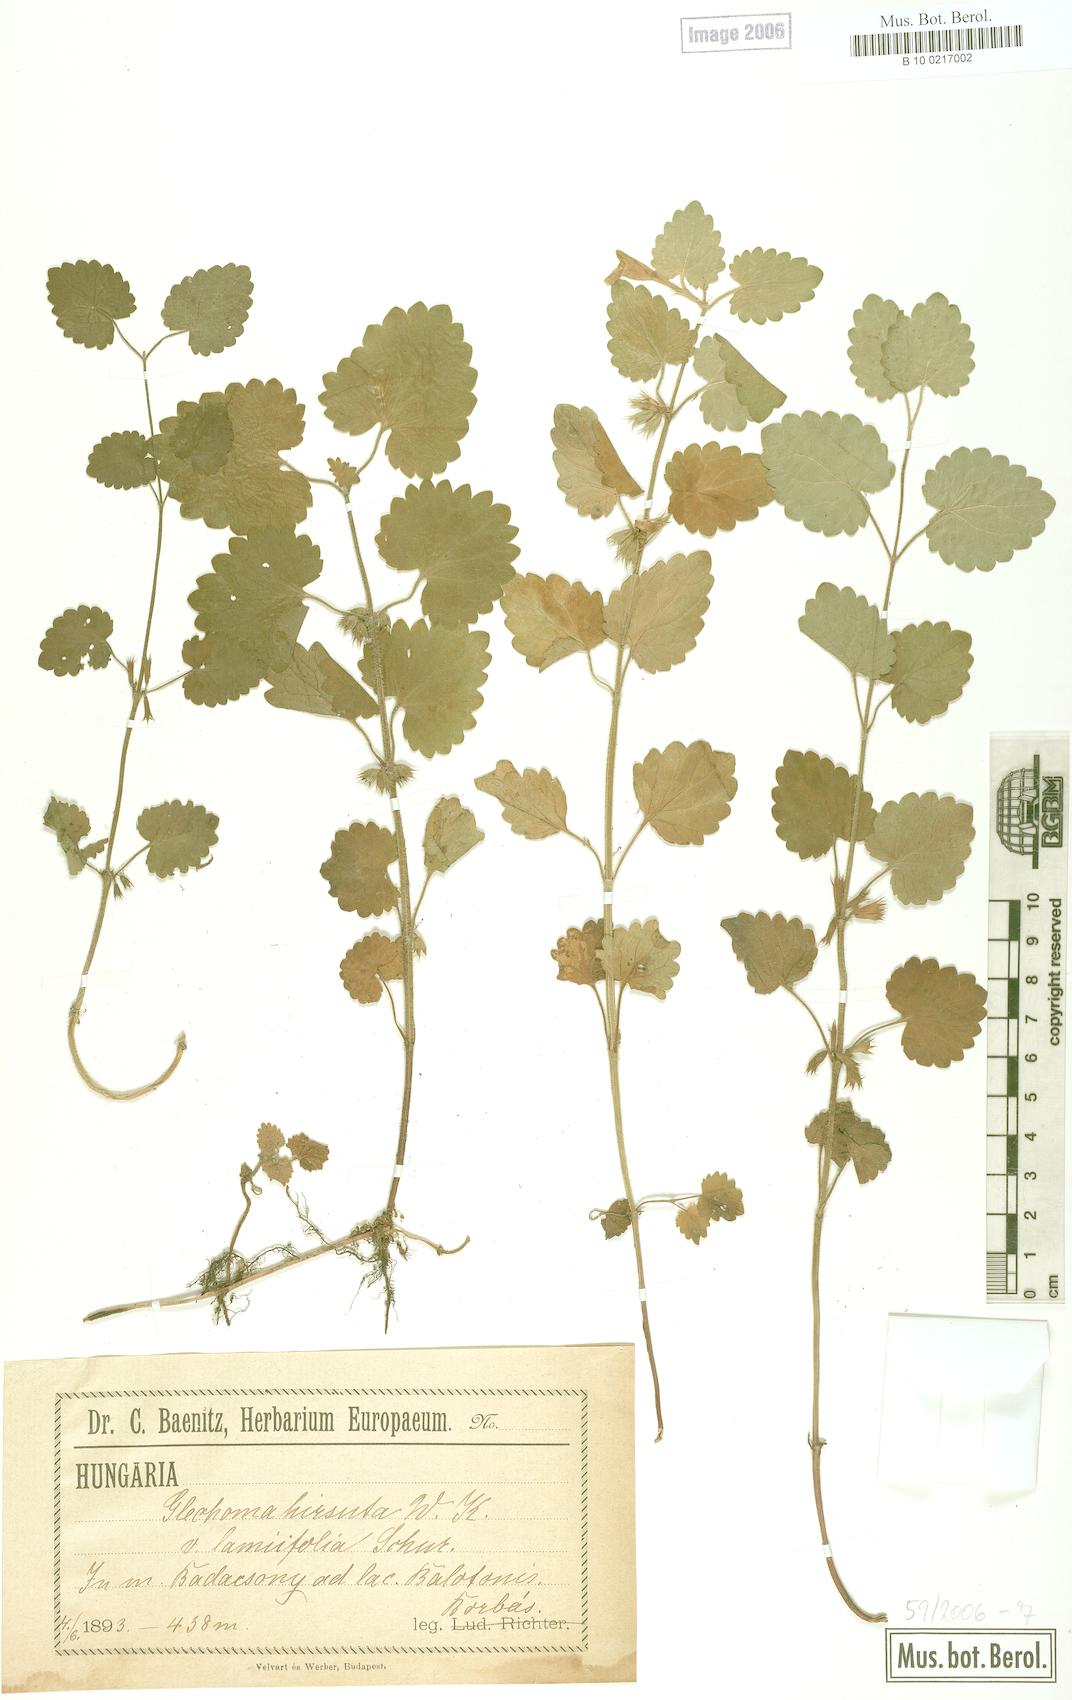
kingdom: Plantae
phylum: Tracheophyta
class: Magnoliopsida
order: Lamiales
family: Lamiaceae
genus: Glechoma
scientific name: Glechoma hirsuta
